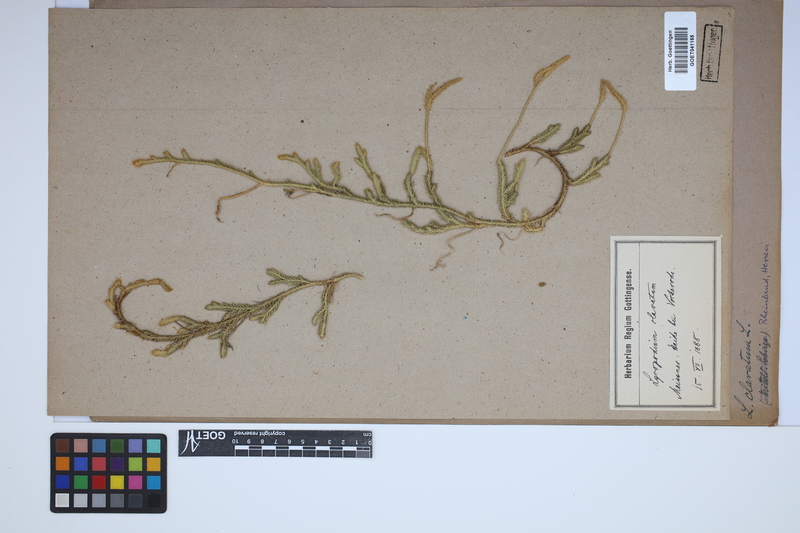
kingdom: Plantae
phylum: Tracheophyta
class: Lycopodiopsida
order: Lycopodiales
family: Lycopodiaceae
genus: Lycopodium
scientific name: Lycopodium clavatum
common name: Stag's-horn clubmoss
